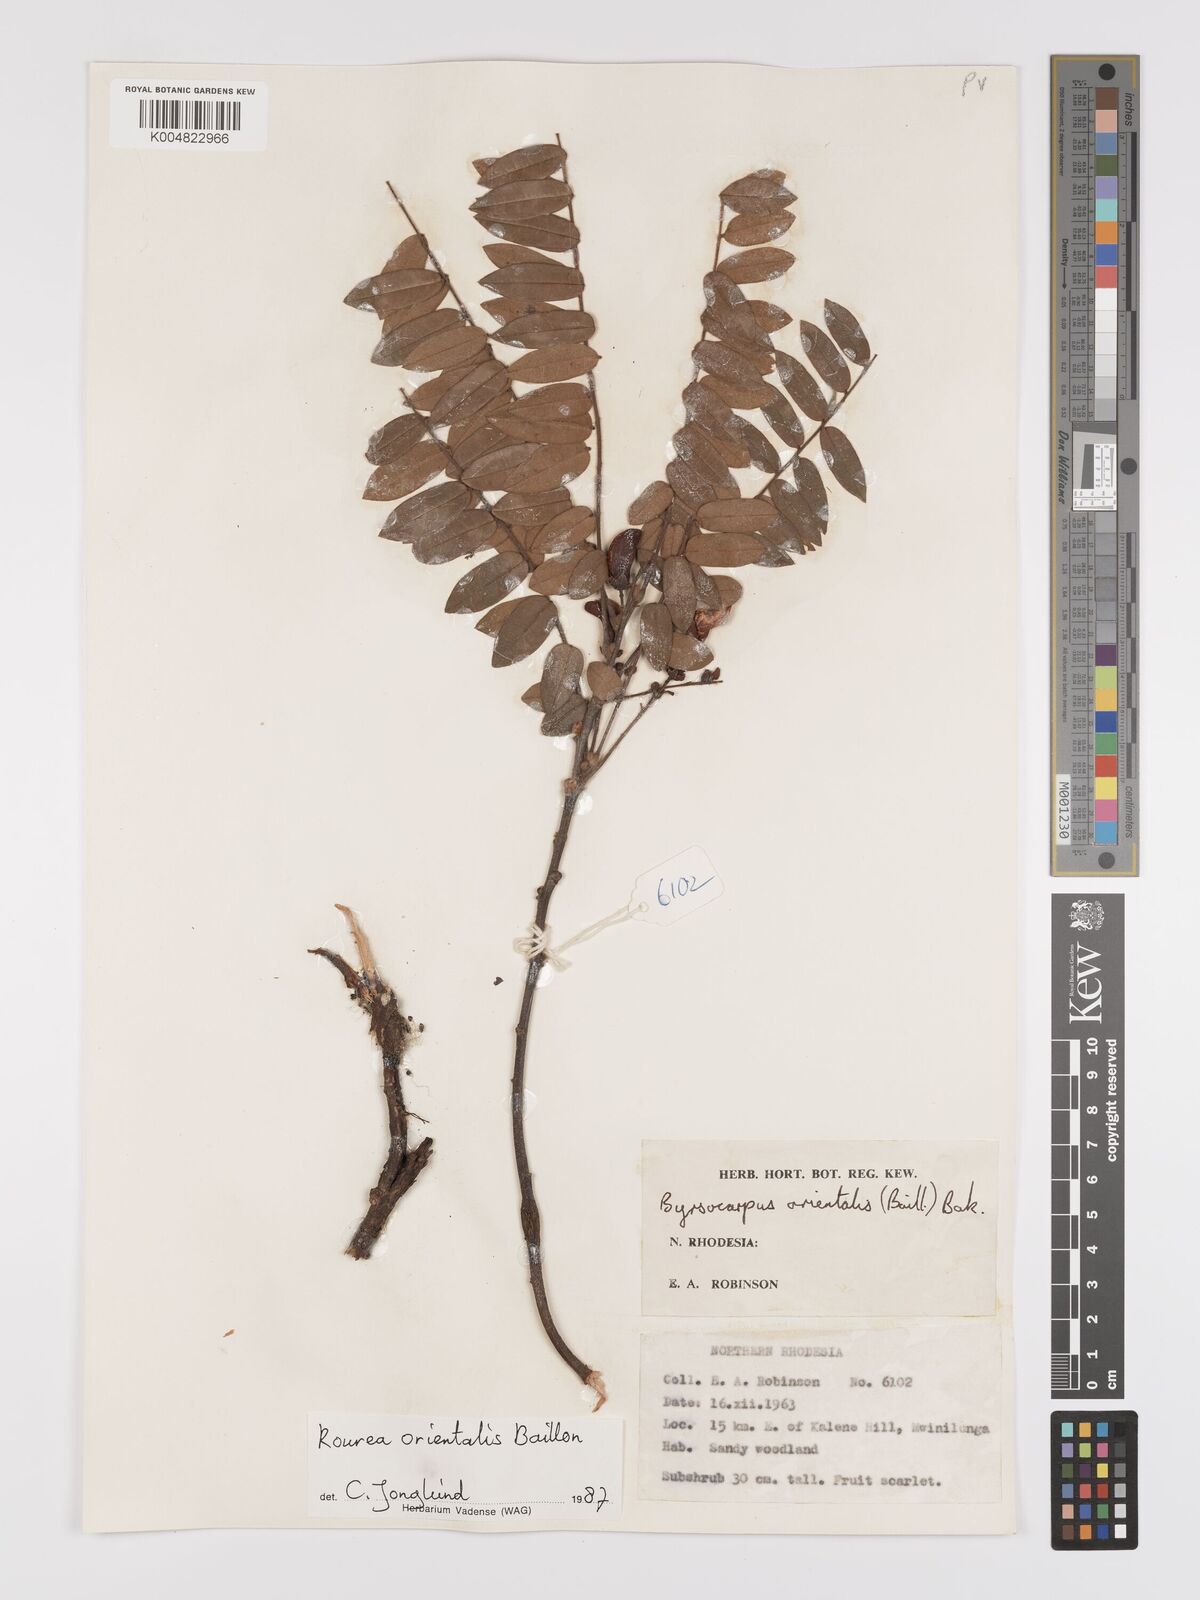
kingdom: Plantae
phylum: Tracheophyta
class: Magnoliopsida
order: Oxalidales
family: Connaraceae
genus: Rourea
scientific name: Rourea orientalis
